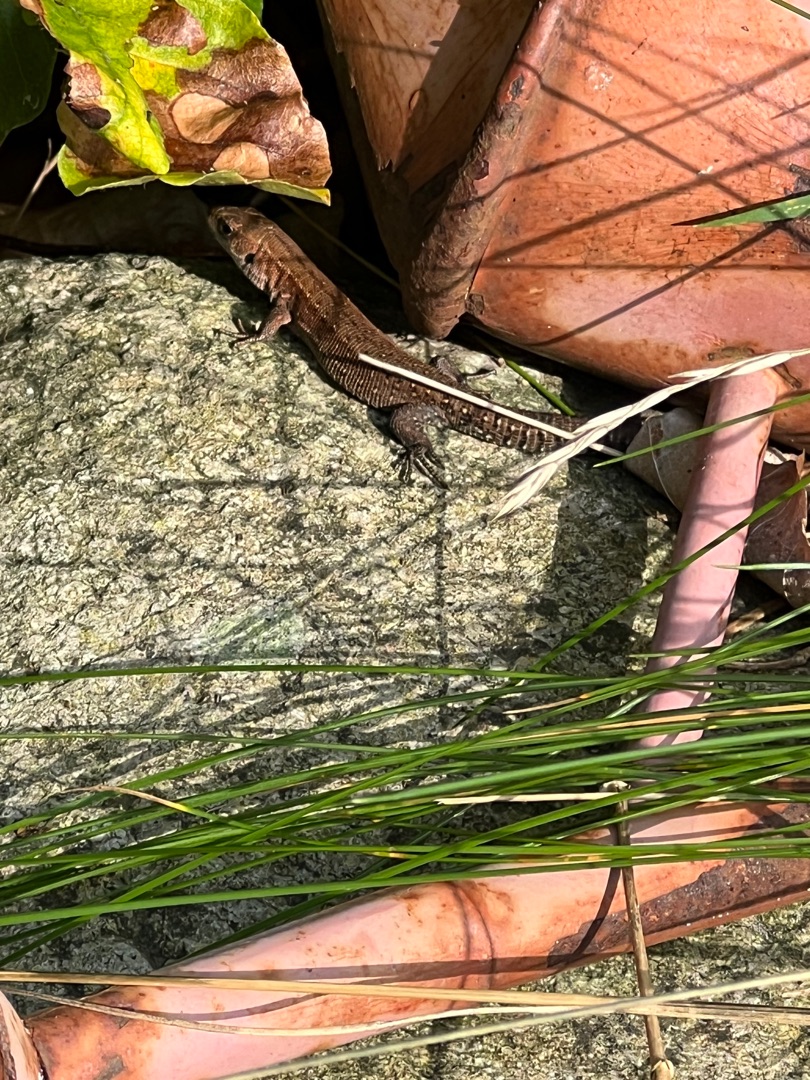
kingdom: Animalia
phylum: Chordata
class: Squamata
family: Lacertidae
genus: Zootoca
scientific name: Zootoca vivipara
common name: Skovfirben
